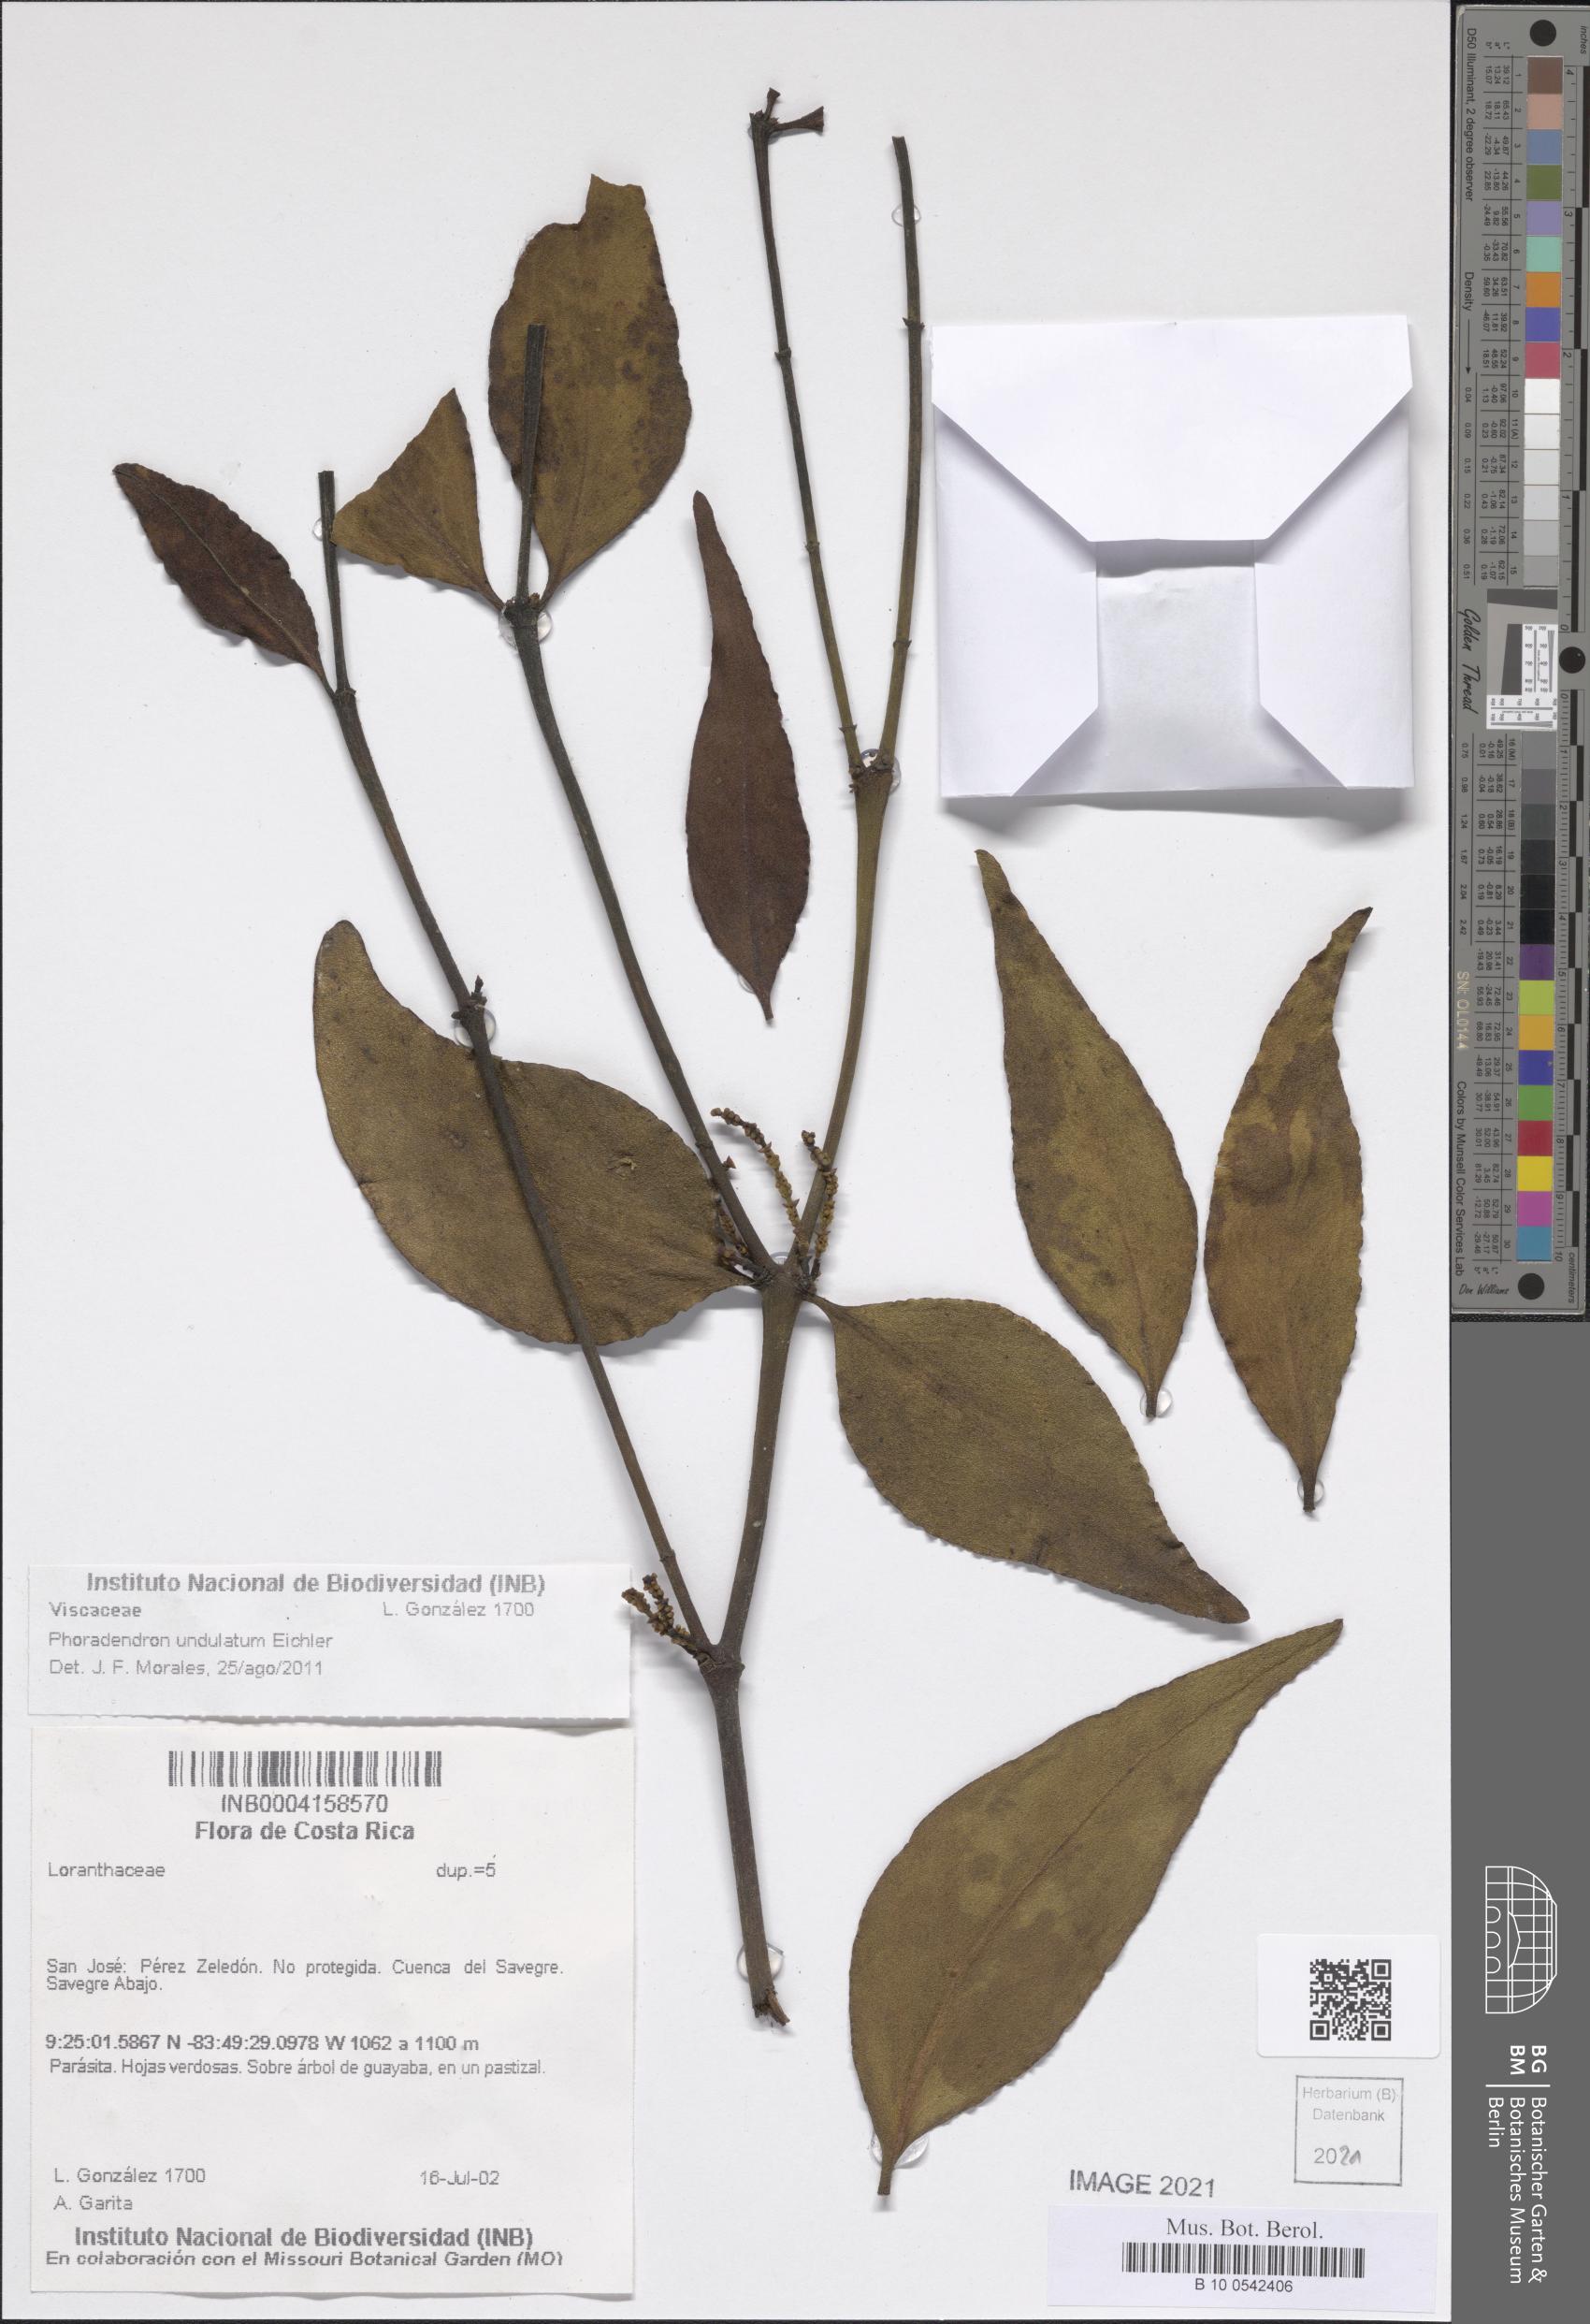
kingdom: Plantae
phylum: Tracheophyta
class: Magnoliopsida
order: Santalales
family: Viscaceae
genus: Phoradendron
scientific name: Phoradendron undulatum
